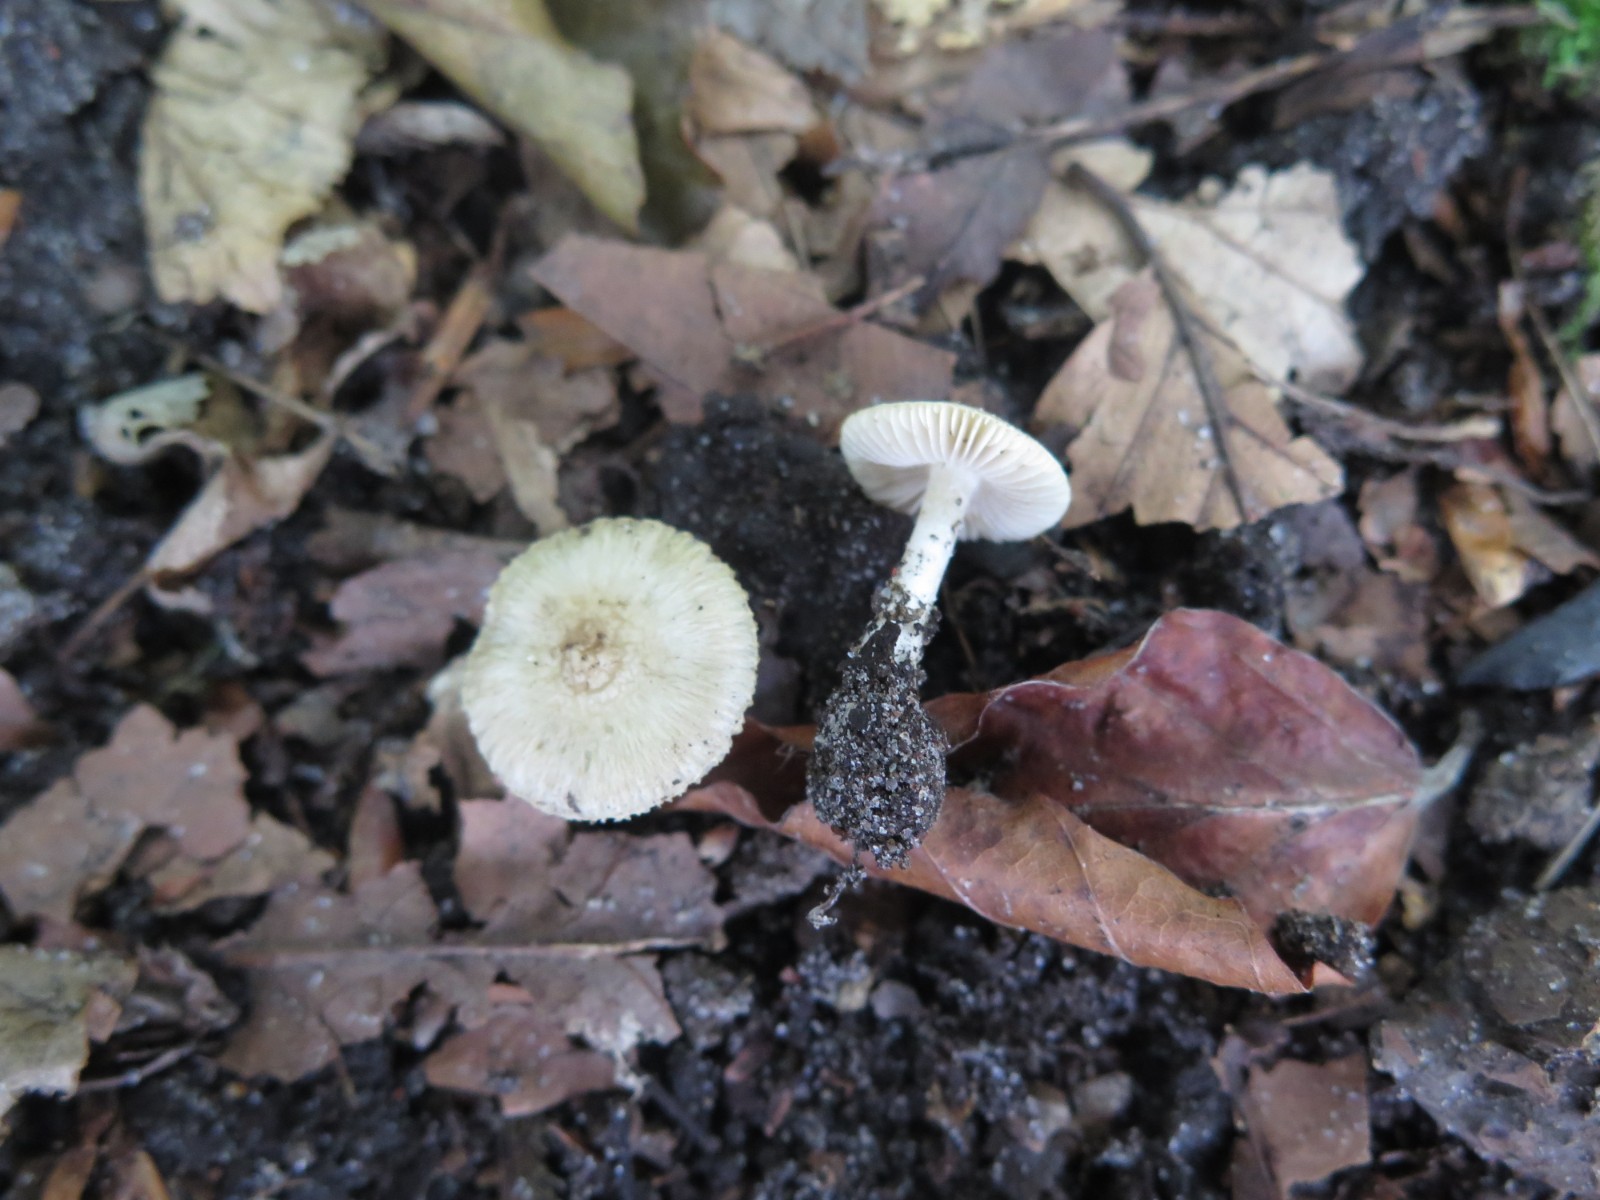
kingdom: Fungi
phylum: Basidiomycota
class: Agaricomycetes
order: Agaricales
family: Inocybaceae
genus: Inocybe
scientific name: Inocybe
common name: almindelig trævlhat
